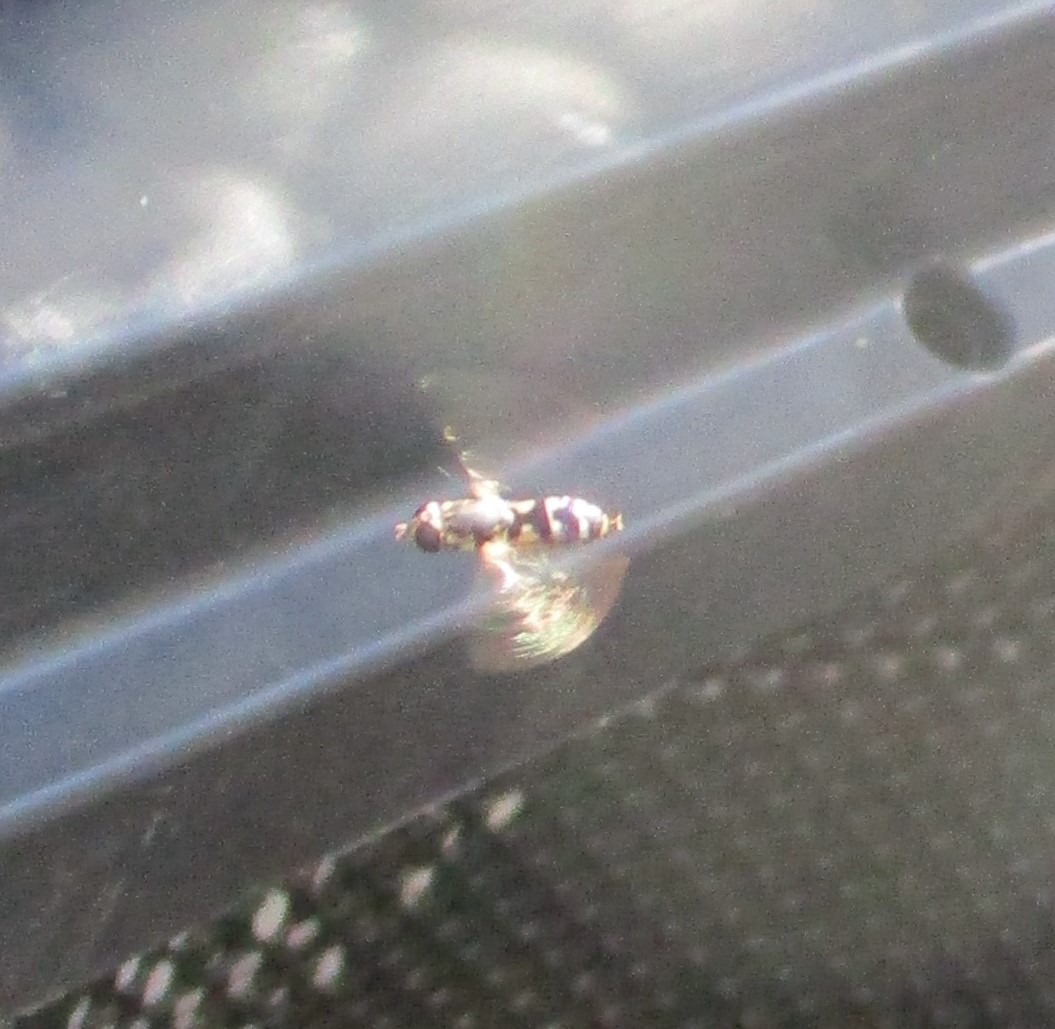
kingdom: Animalia
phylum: Arthropoda
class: Insecta
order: Diptera
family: Syrphidae
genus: Syritta
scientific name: Syritta pipiens
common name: Kompost-svirreflue
